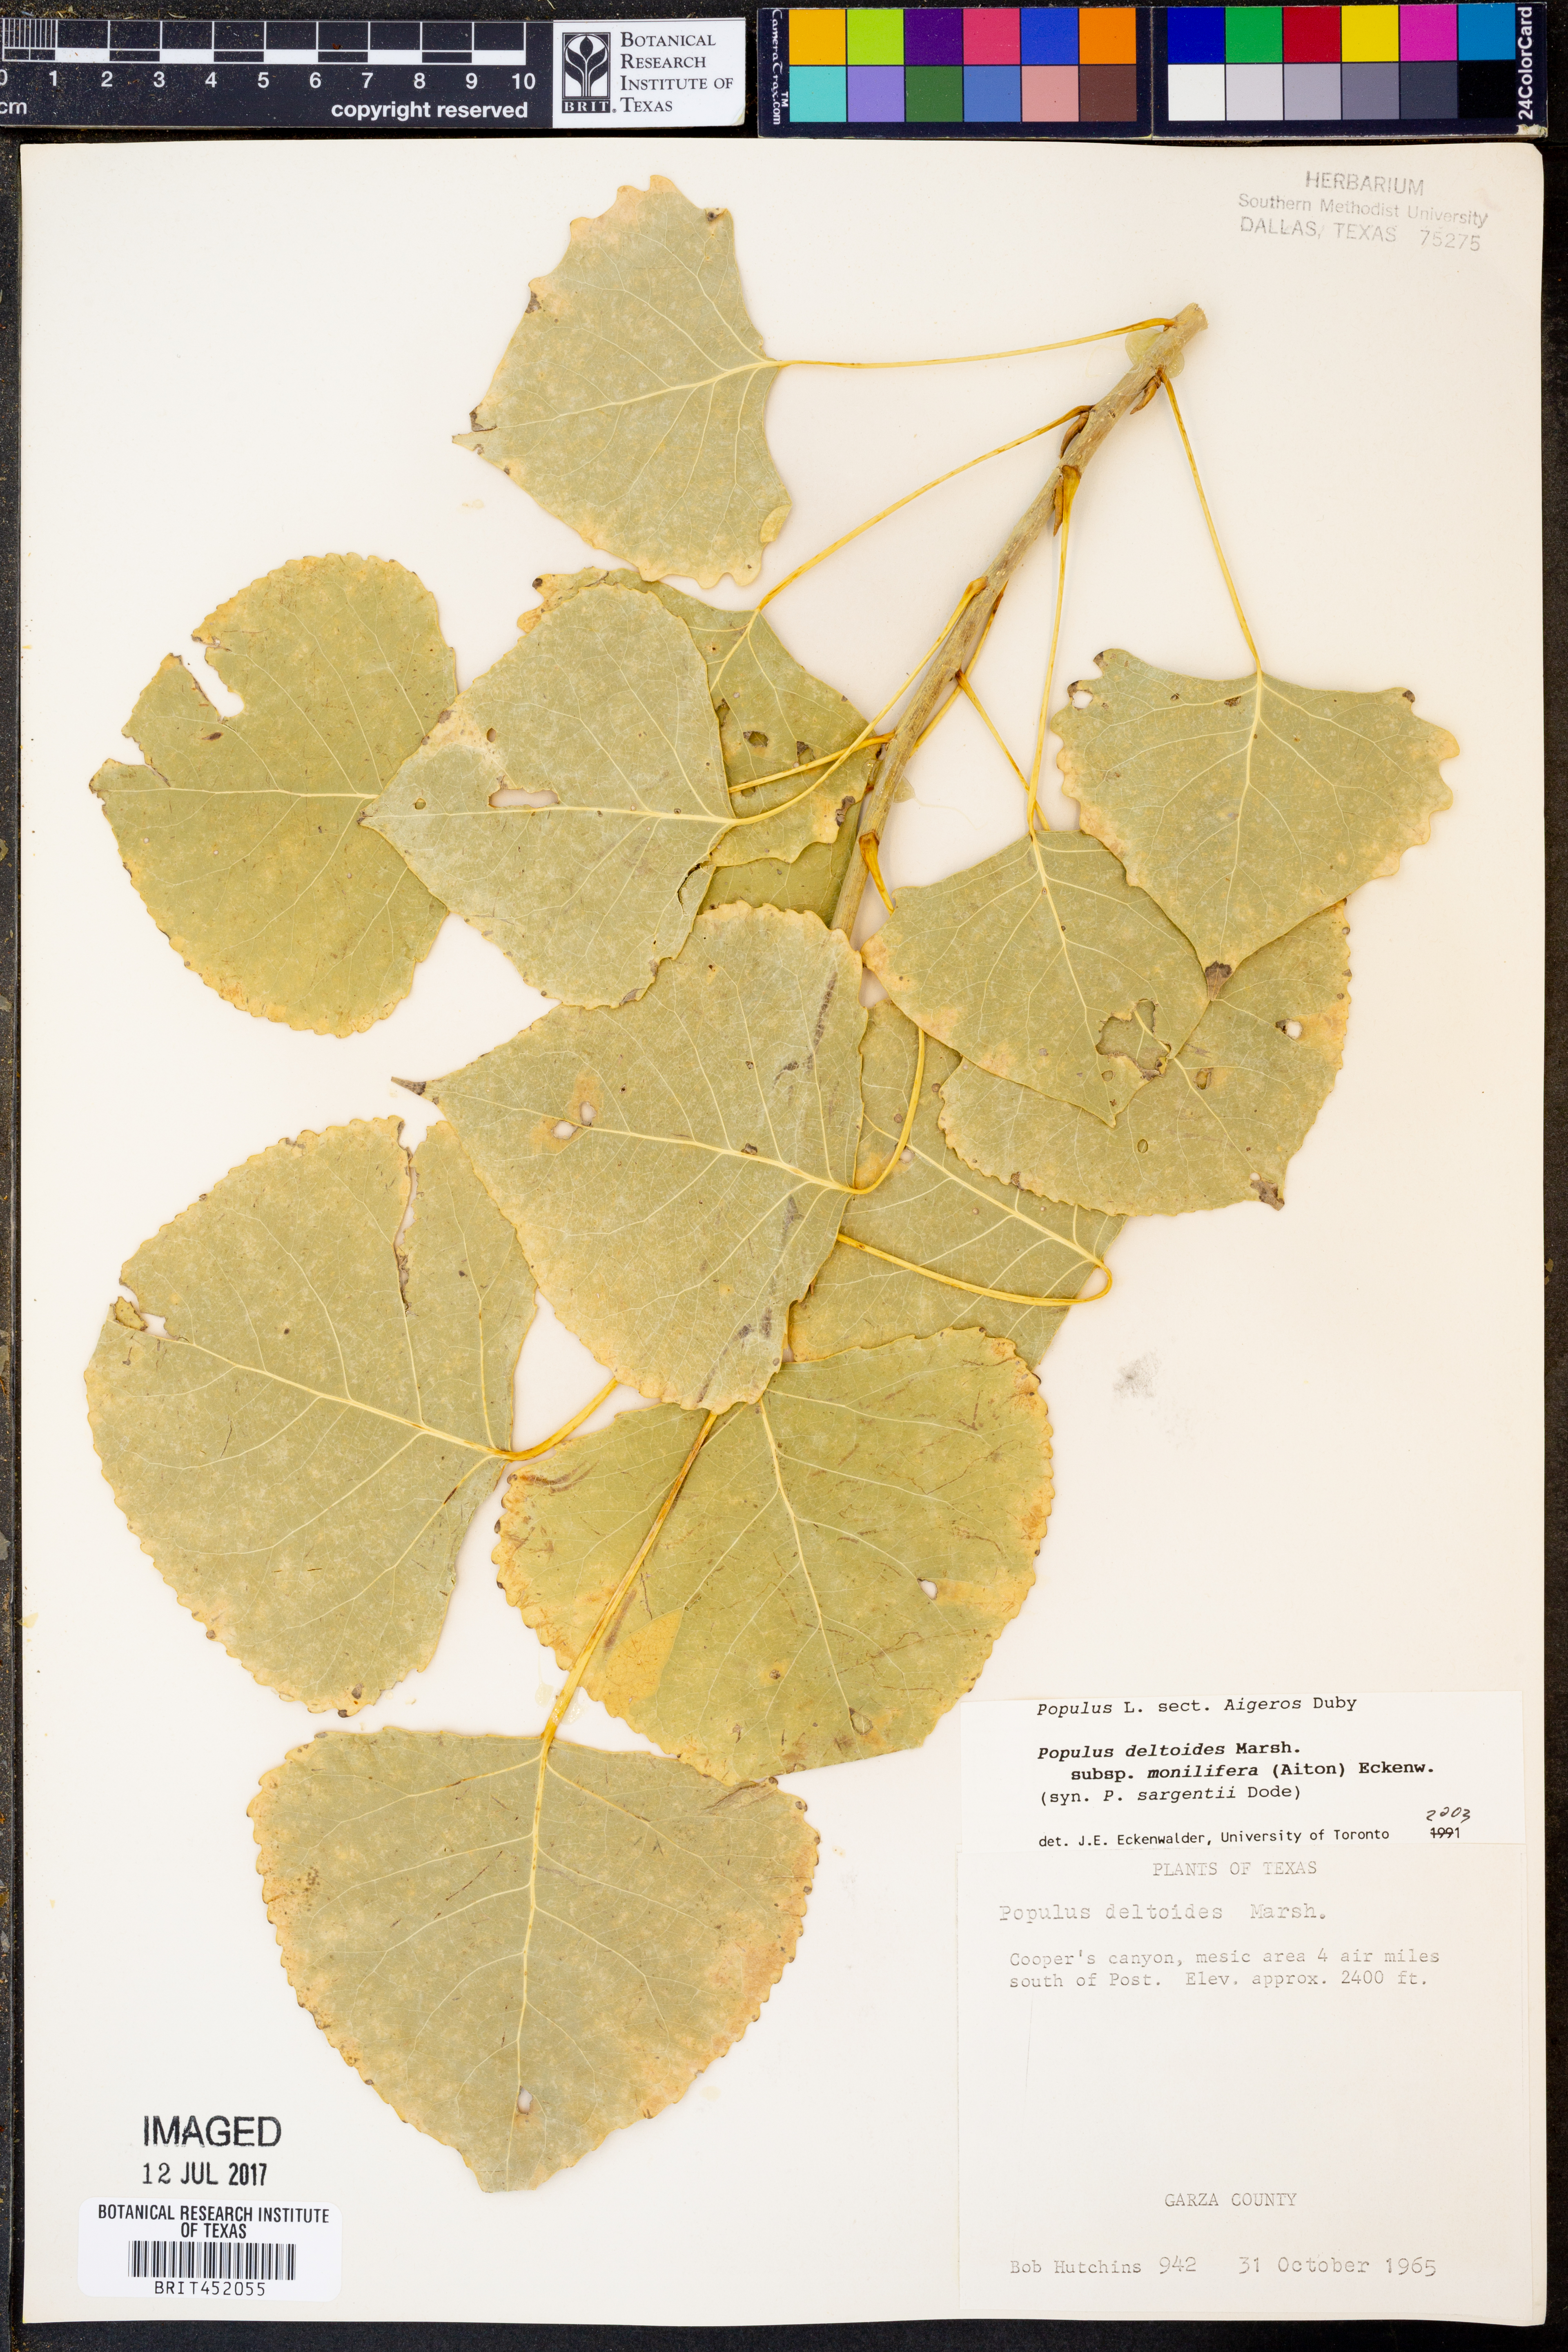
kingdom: Plantae
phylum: Tracheophyta
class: Magnoliopsida
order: Malpighiales
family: Salicaceae
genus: Populus
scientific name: Populus deltoides
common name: Eastern cottonwood
